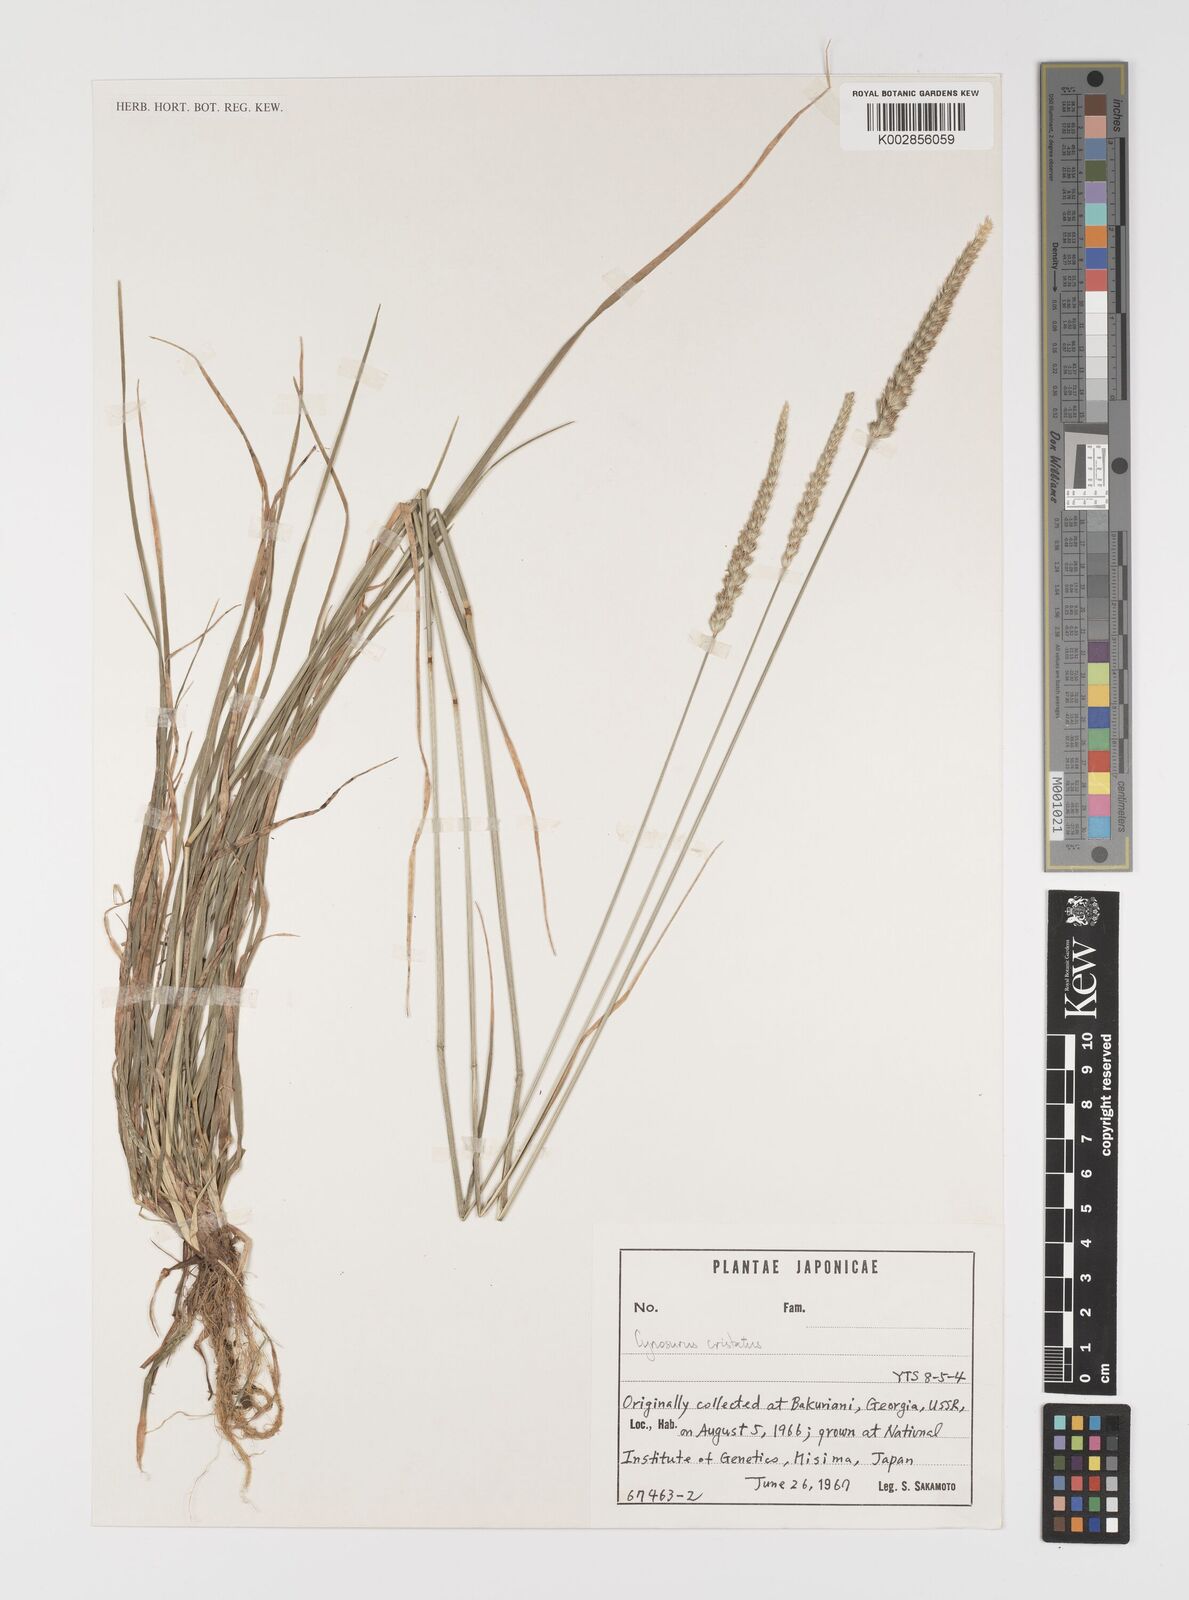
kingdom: Plantae
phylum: Tracheophyta
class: Liliopsida
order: Poales
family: Poaceae
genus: Cynosurus
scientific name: Cynosurus cristatus
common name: Crested dog's-tail
